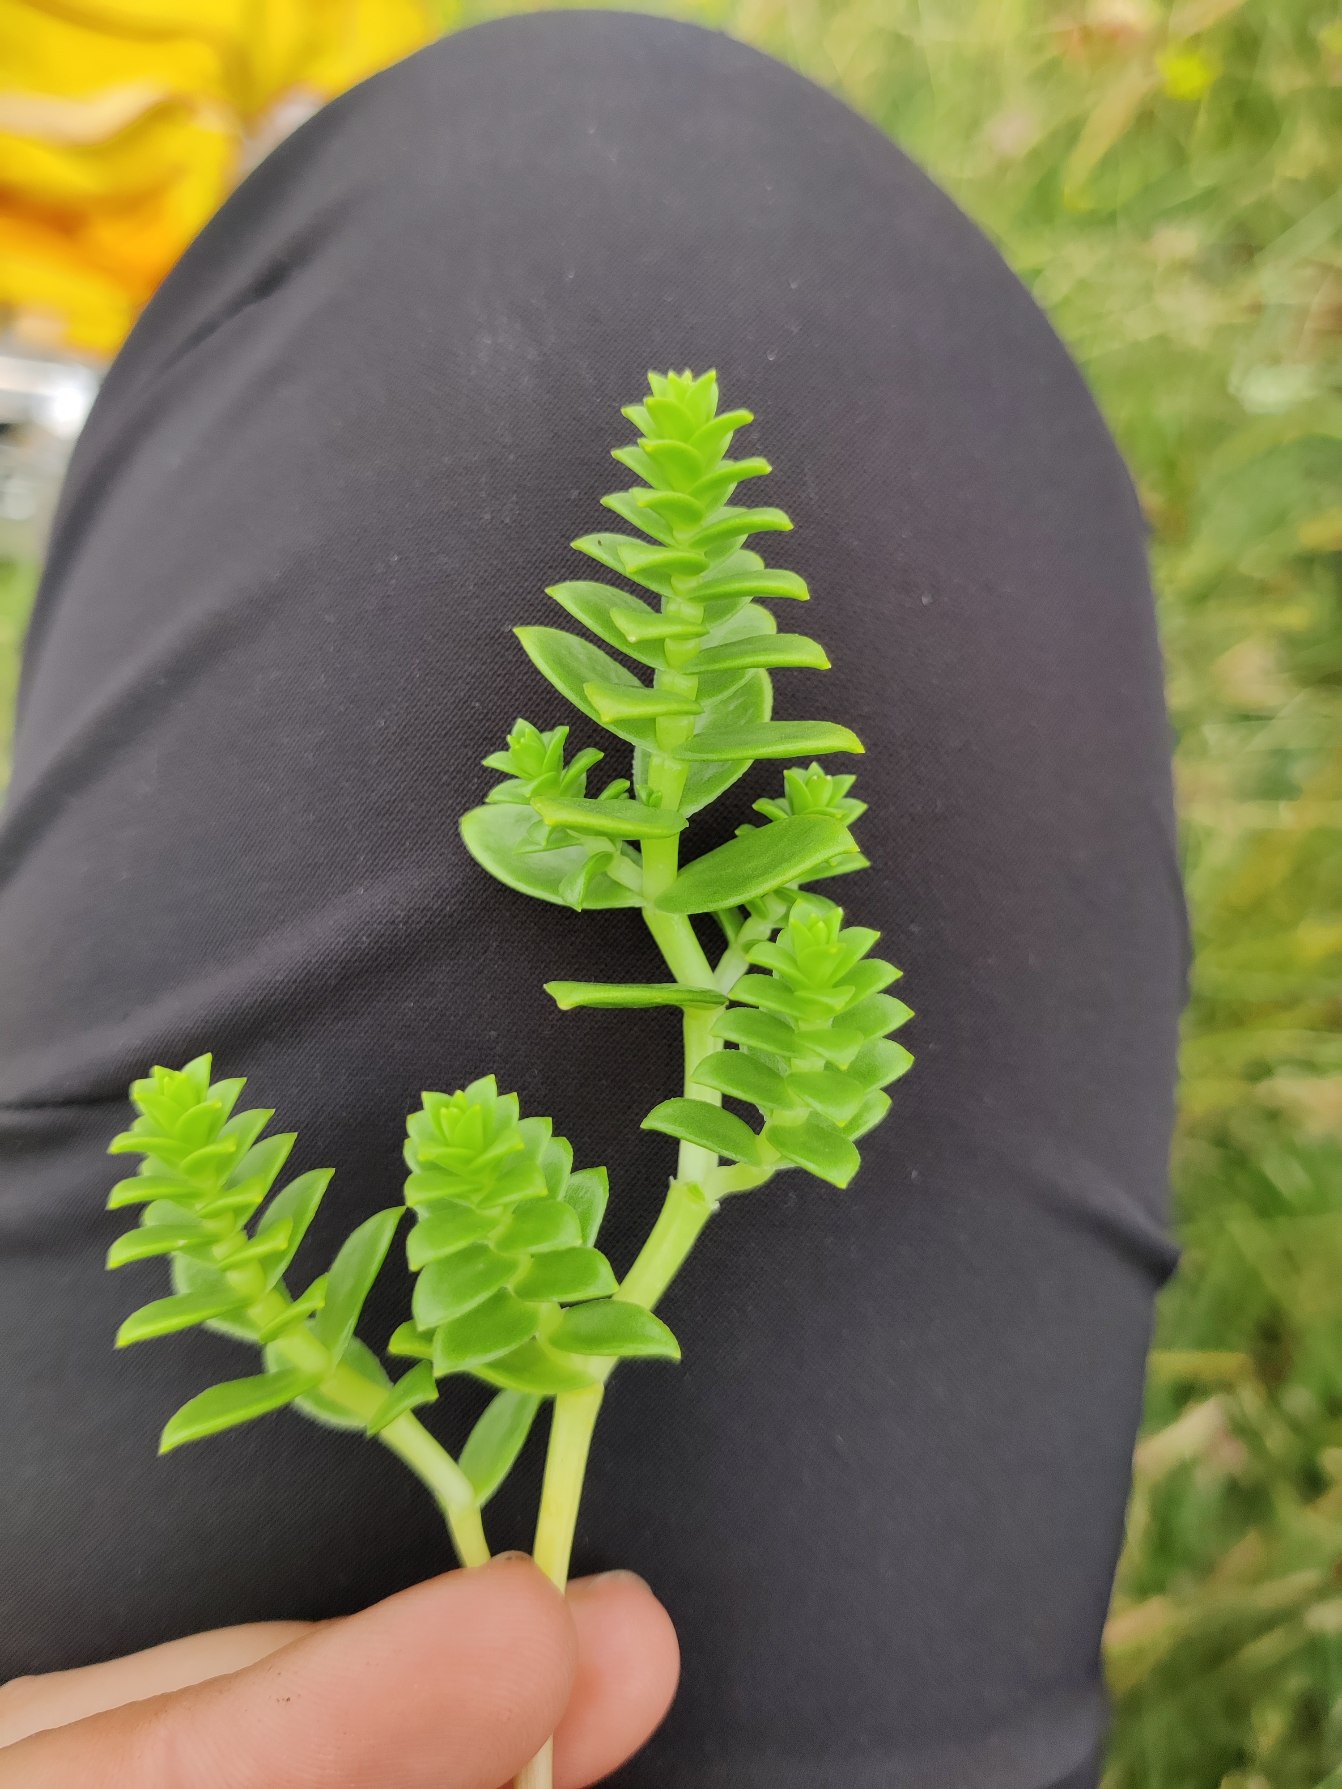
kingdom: Plantae
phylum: Tracheophyta
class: Magnoliopsida
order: Caryophyllales
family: Caryophyllaceae
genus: Honckenya
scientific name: Honckenya peploides
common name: Strandarve
